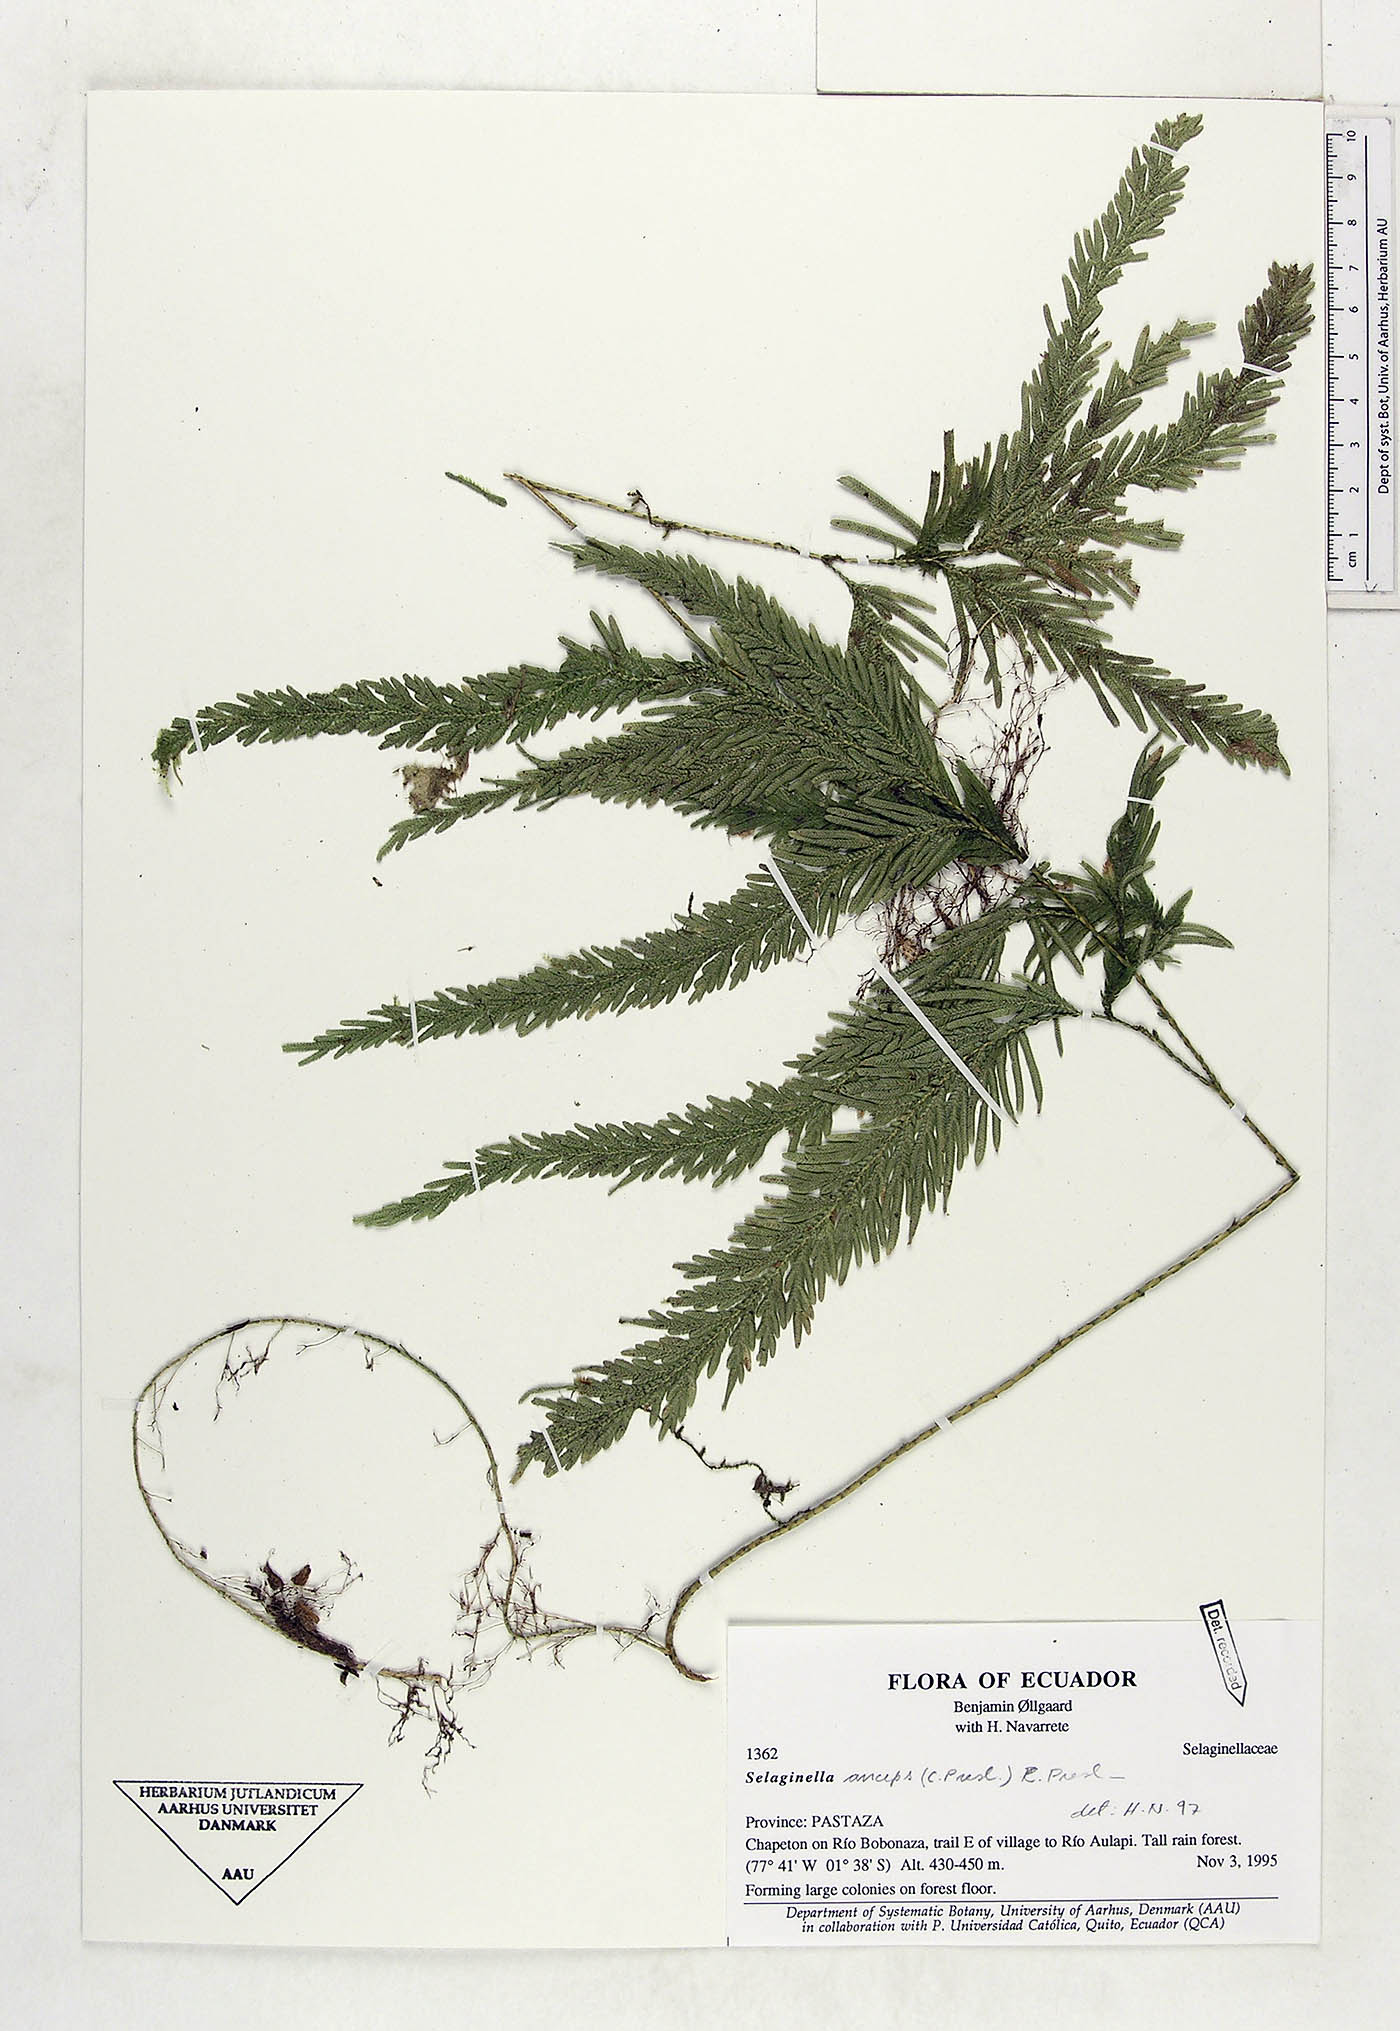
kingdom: Plantae
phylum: Tracheophyta
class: Lycopodiopsida
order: Selaginellales
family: Selaginellaceae
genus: Selaginella
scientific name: Selaginella anceps
